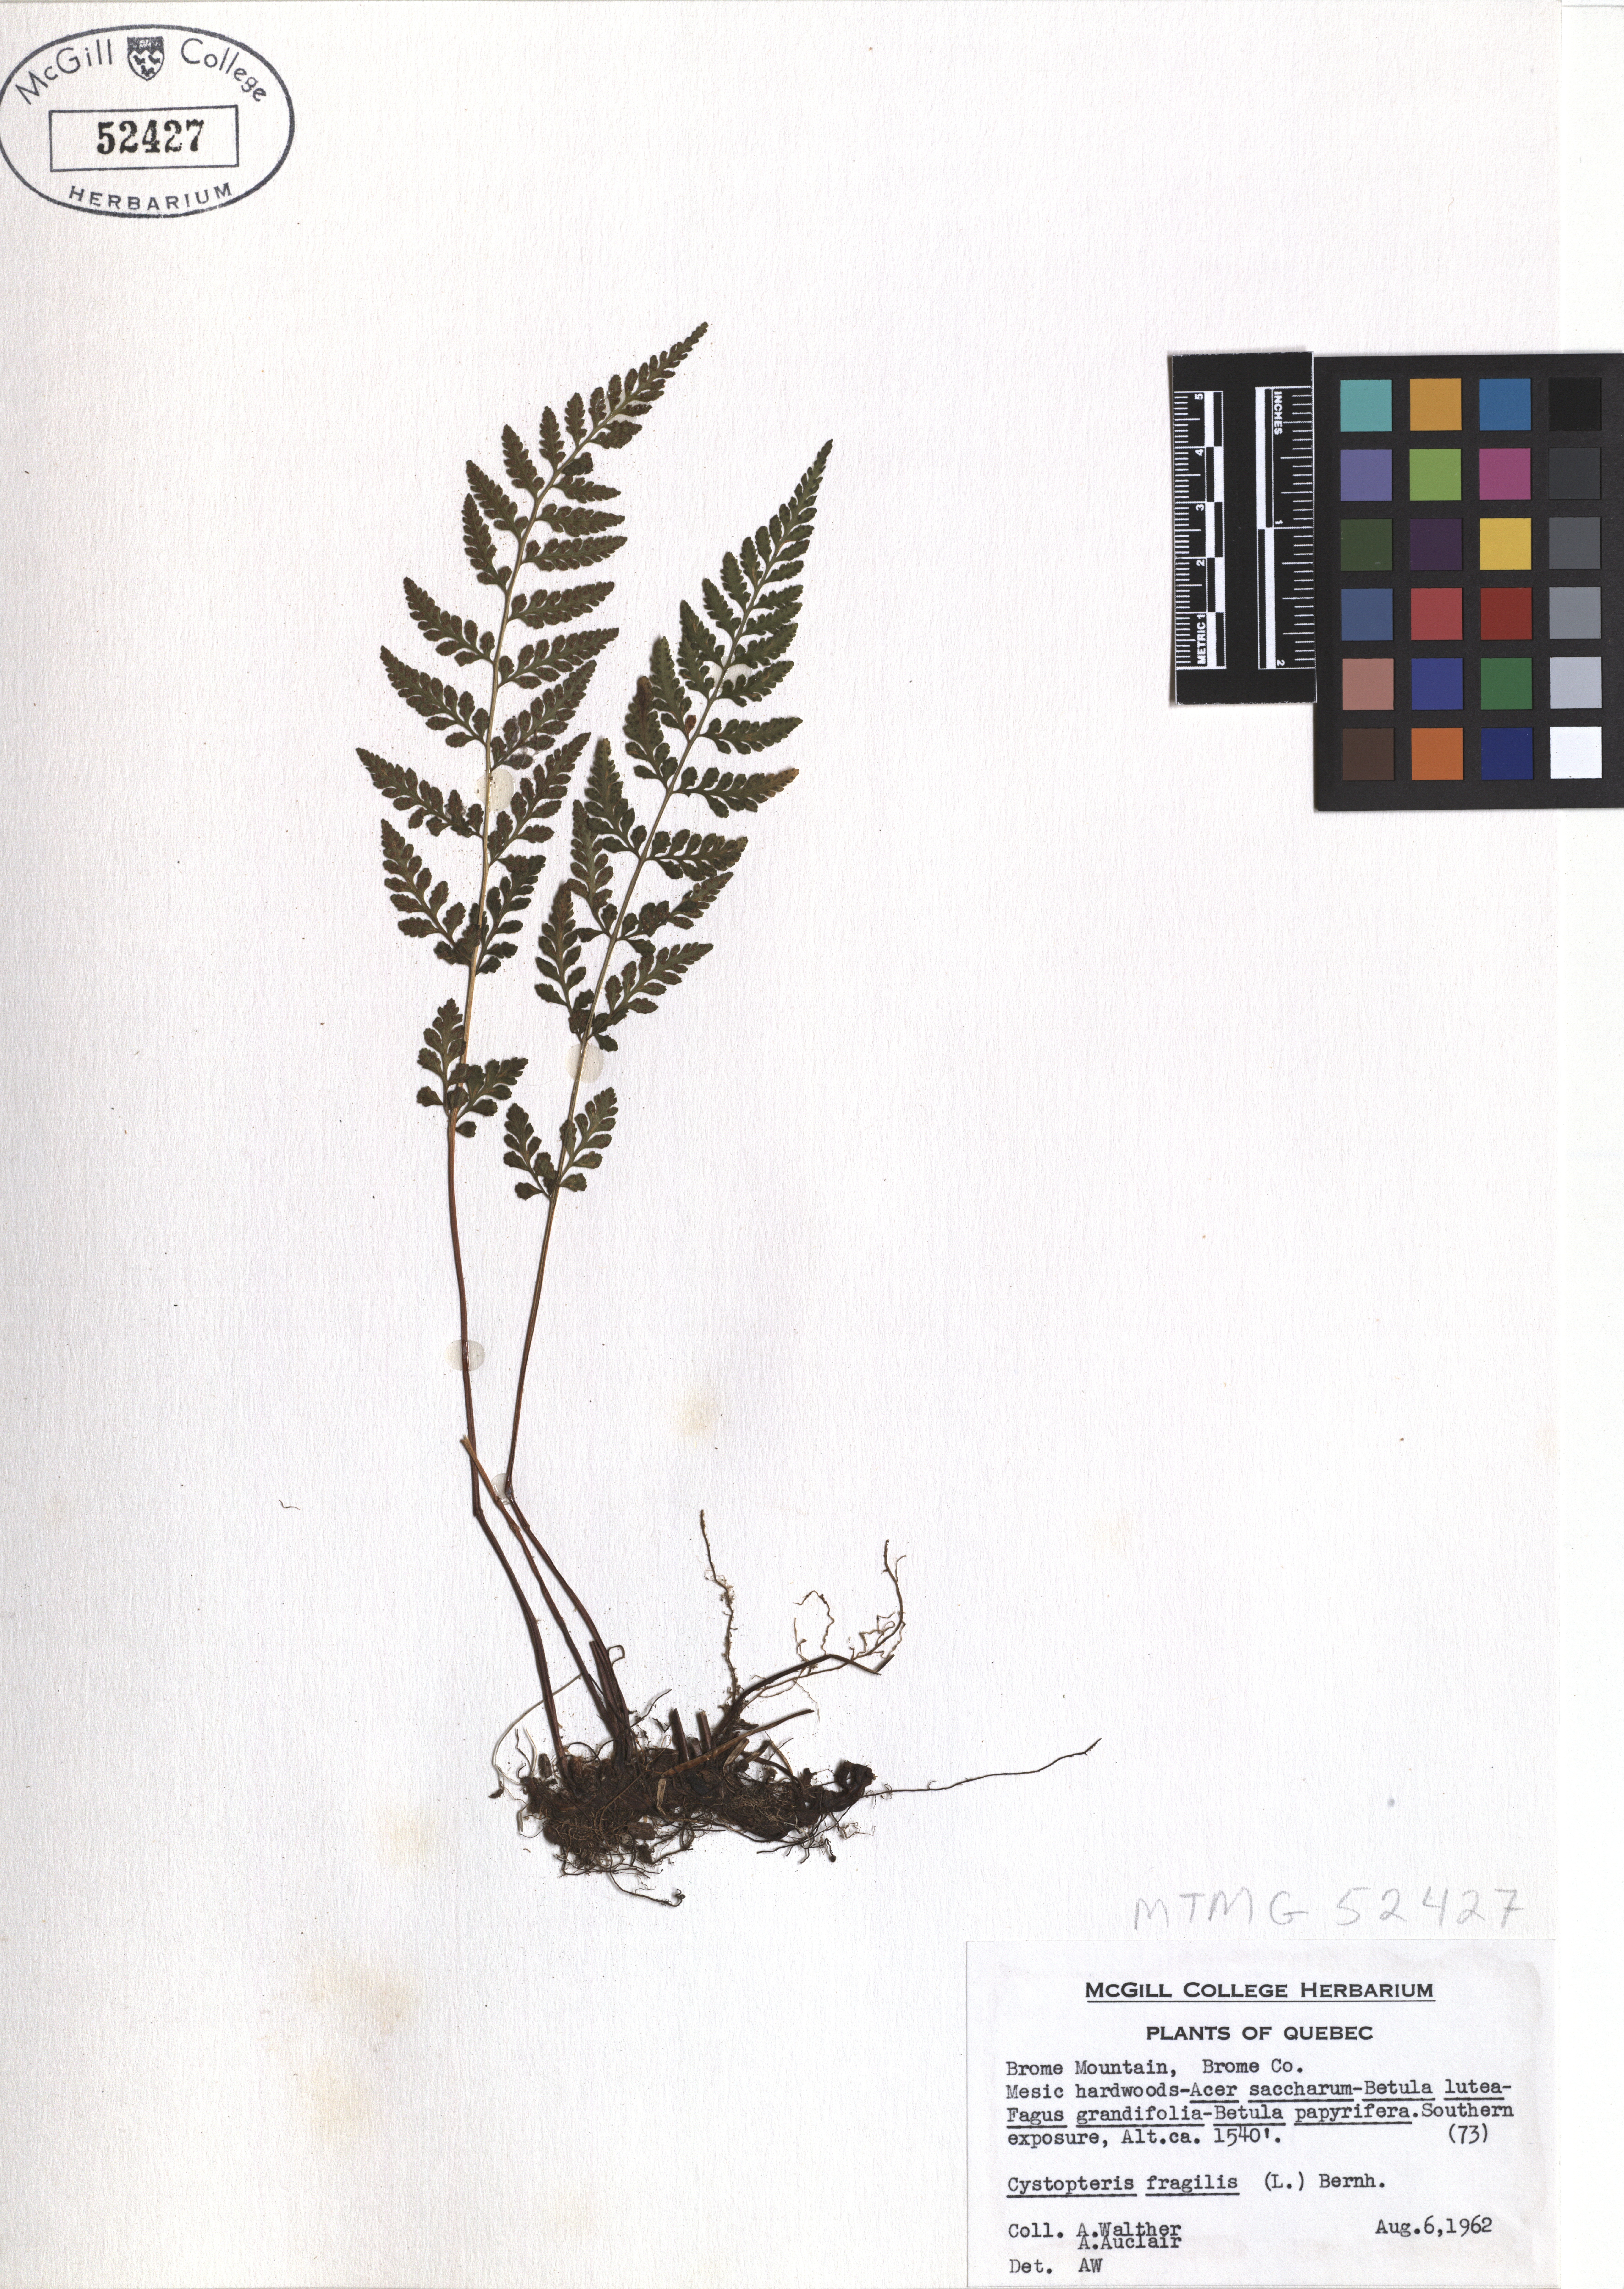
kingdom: Plantae
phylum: Tracheophyta
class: Polypodiopsida
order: Polypodiales
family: Cystopteridaceae
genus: Cystopteris
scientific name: Cystopteris fragilis
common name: Brittle bladder fern
